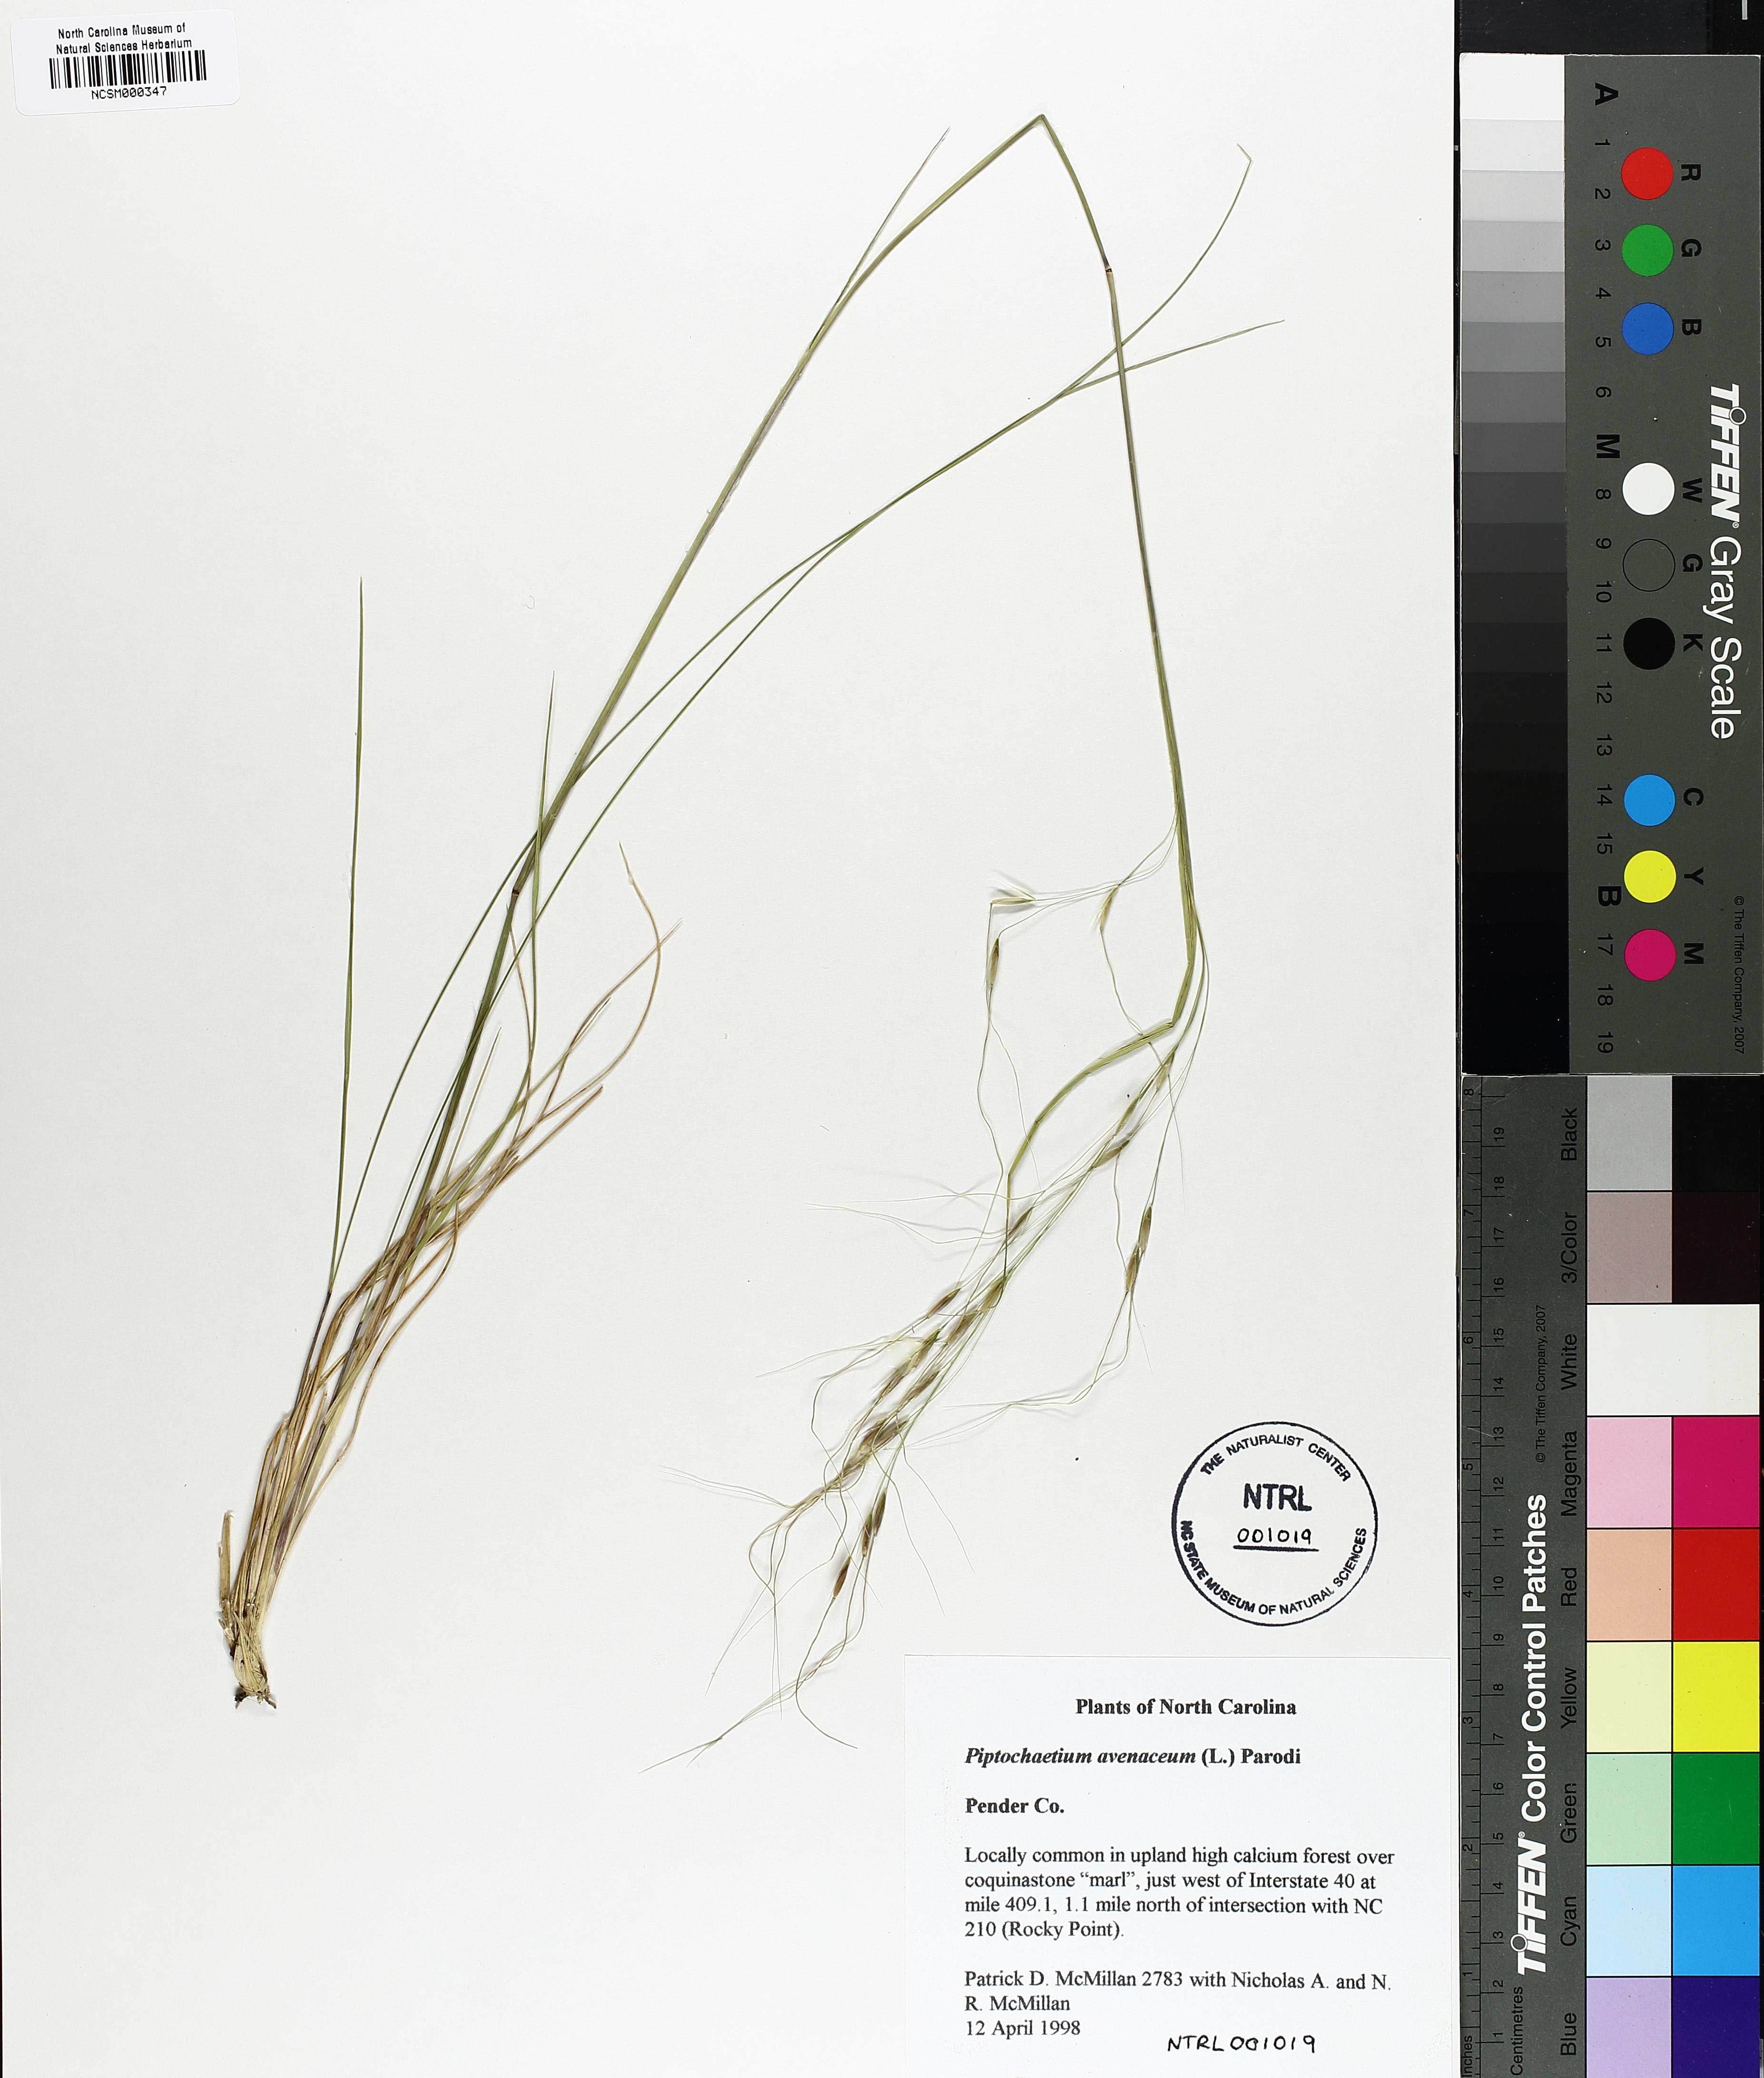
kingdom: Plantae
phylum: Tracheophyta
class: Liliopsida
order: Poales
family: Poaceae
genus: Piptochaetium
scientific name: Piptochaetium avenaceum
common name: Black bunchgrass
